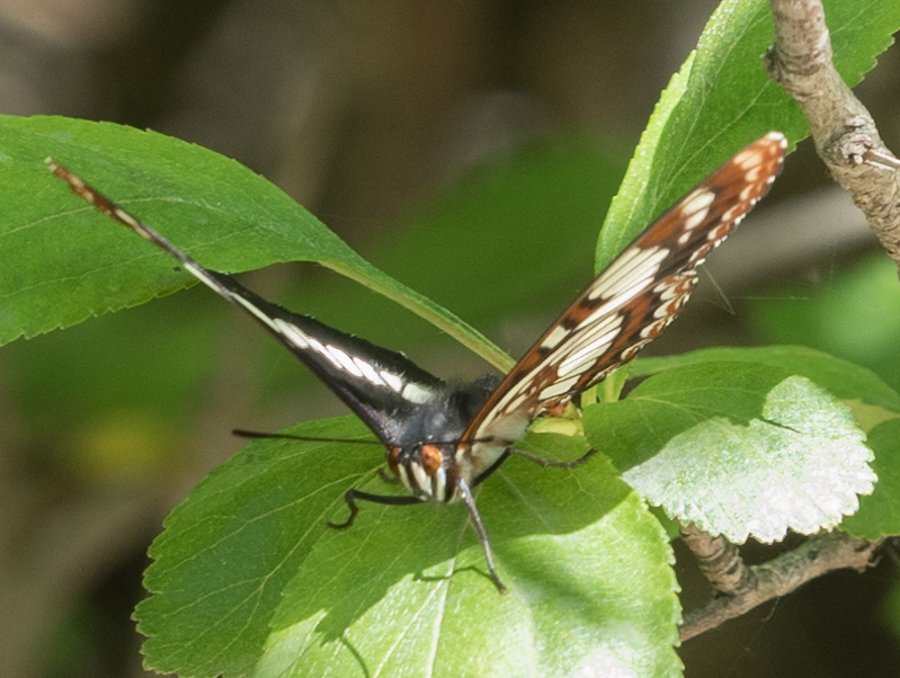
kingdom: Animalia
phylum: Arthropoda
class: Insecta
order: Lepidoptera
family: Nymphalidae
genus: Limenitis
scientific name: Limenitis lorquini
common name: Lorquin's Admiral
